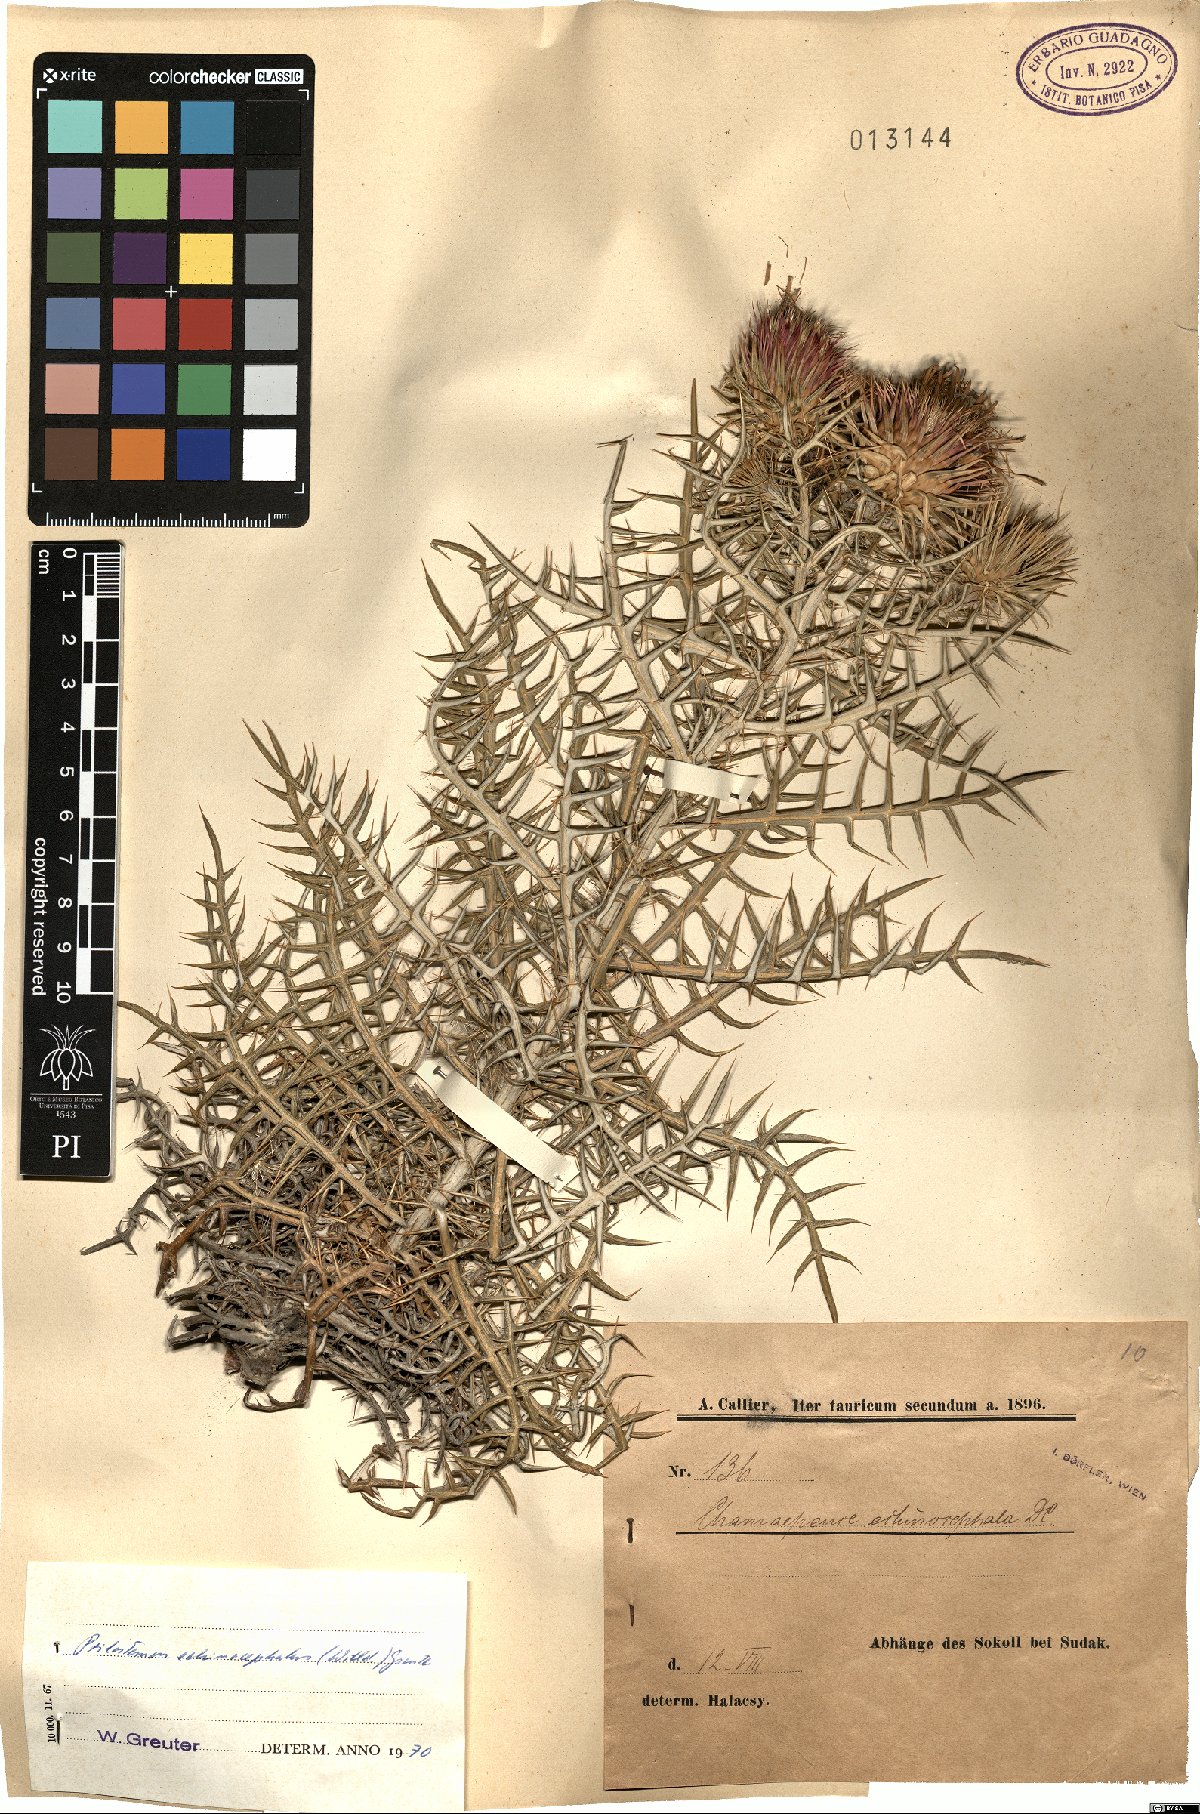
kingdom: Plantae
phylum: Tracheophyta
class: Magnoliopsida
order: Asterales
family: Asteraceae
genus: Ptilostemon
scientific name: Ptilostemon echinocephalus
